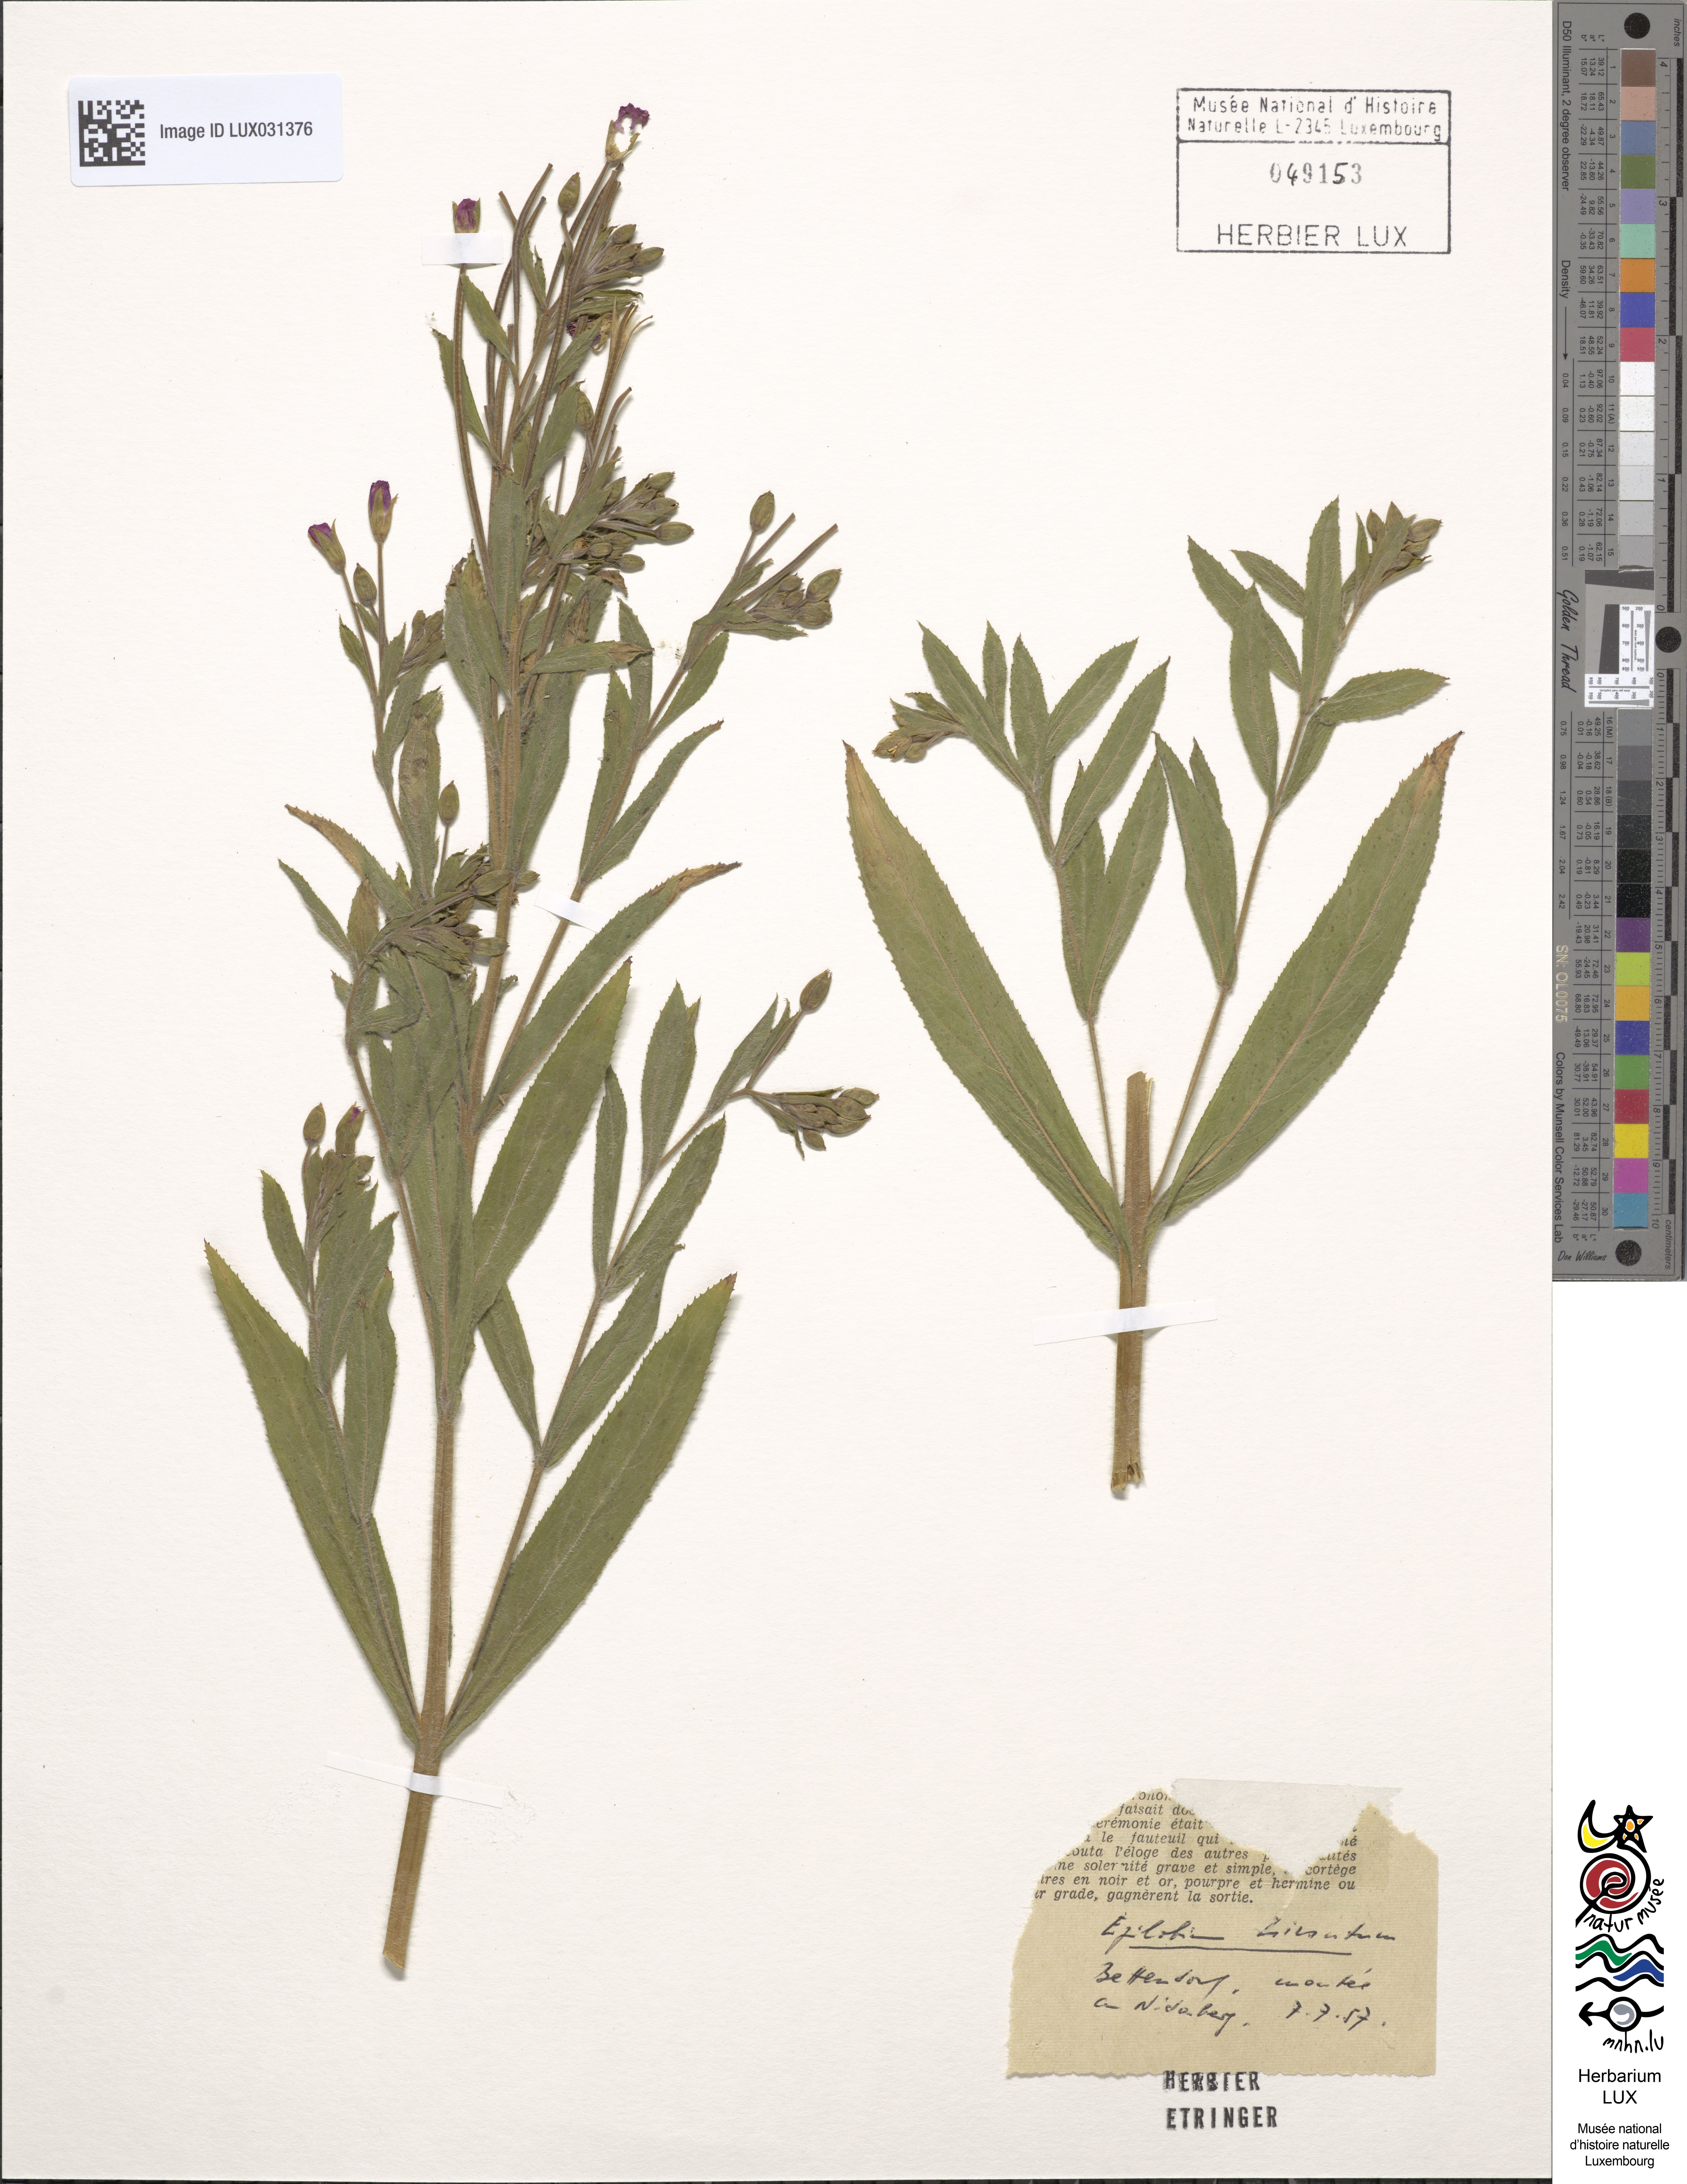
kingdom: Plantae
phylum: Tracheophyta
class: Magnoliopsida
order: Myrtales
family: Onagraceae
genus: Epilobium
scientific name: Epilobium hirsutum
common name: Great willowherb
